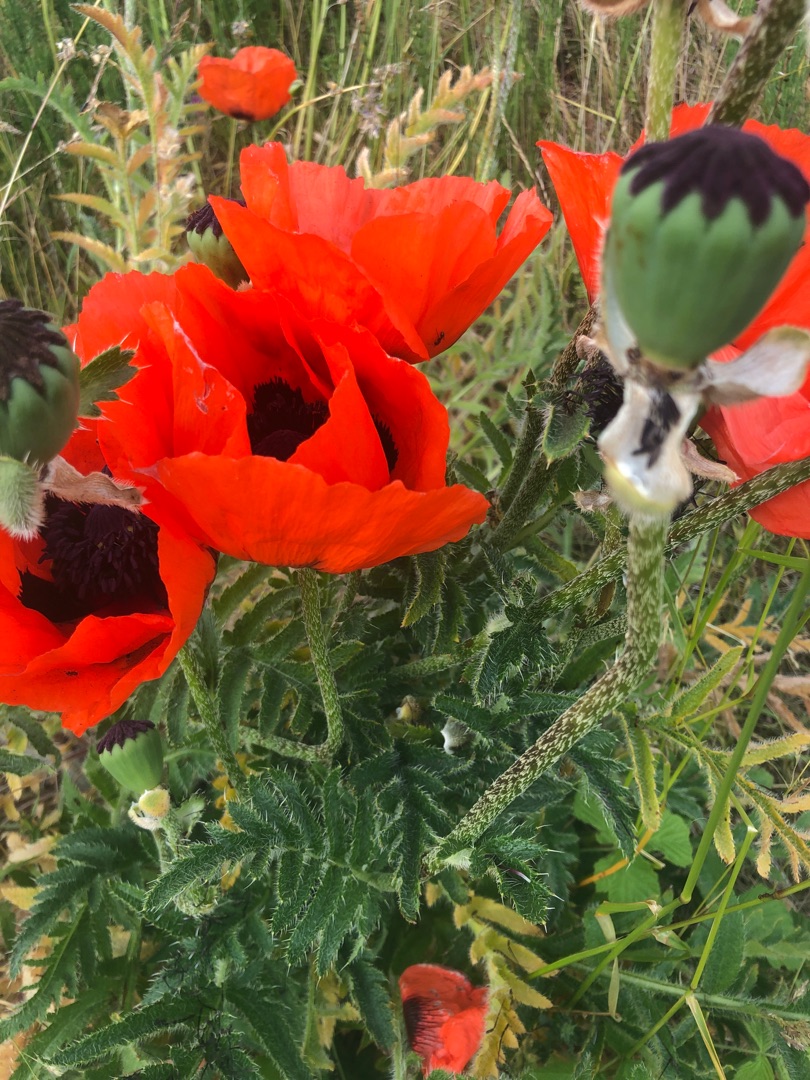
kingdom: Plantae
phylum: Tracheophyta
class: Magnoliopsida
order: Ranunculales
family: Papaveraceae
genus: Papaver
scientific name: Papaver rhoeas
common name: Korn-valmue
